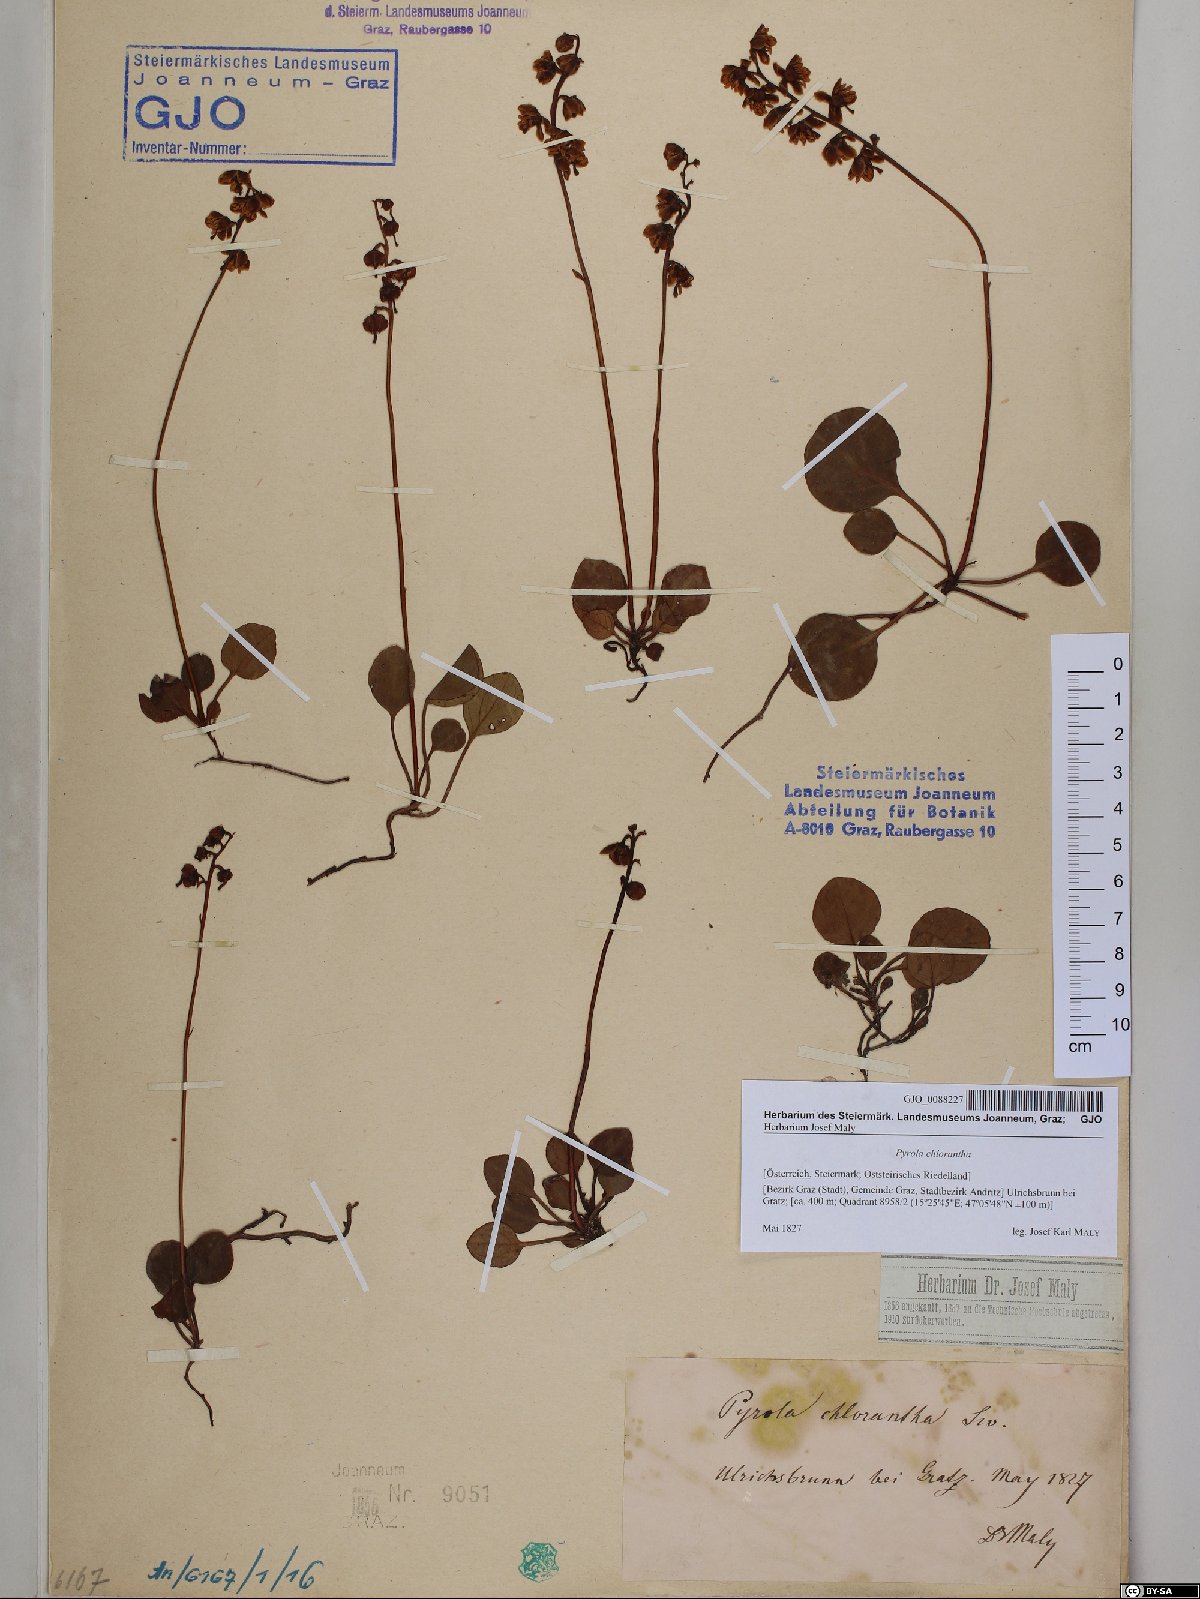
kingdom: Plantae
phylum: Tracheophyta
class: Magnoliopsida
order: Ericales
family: Ericaceae
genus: Pyrola
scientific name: Pyrola chlorantha
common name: Green wintergreen
